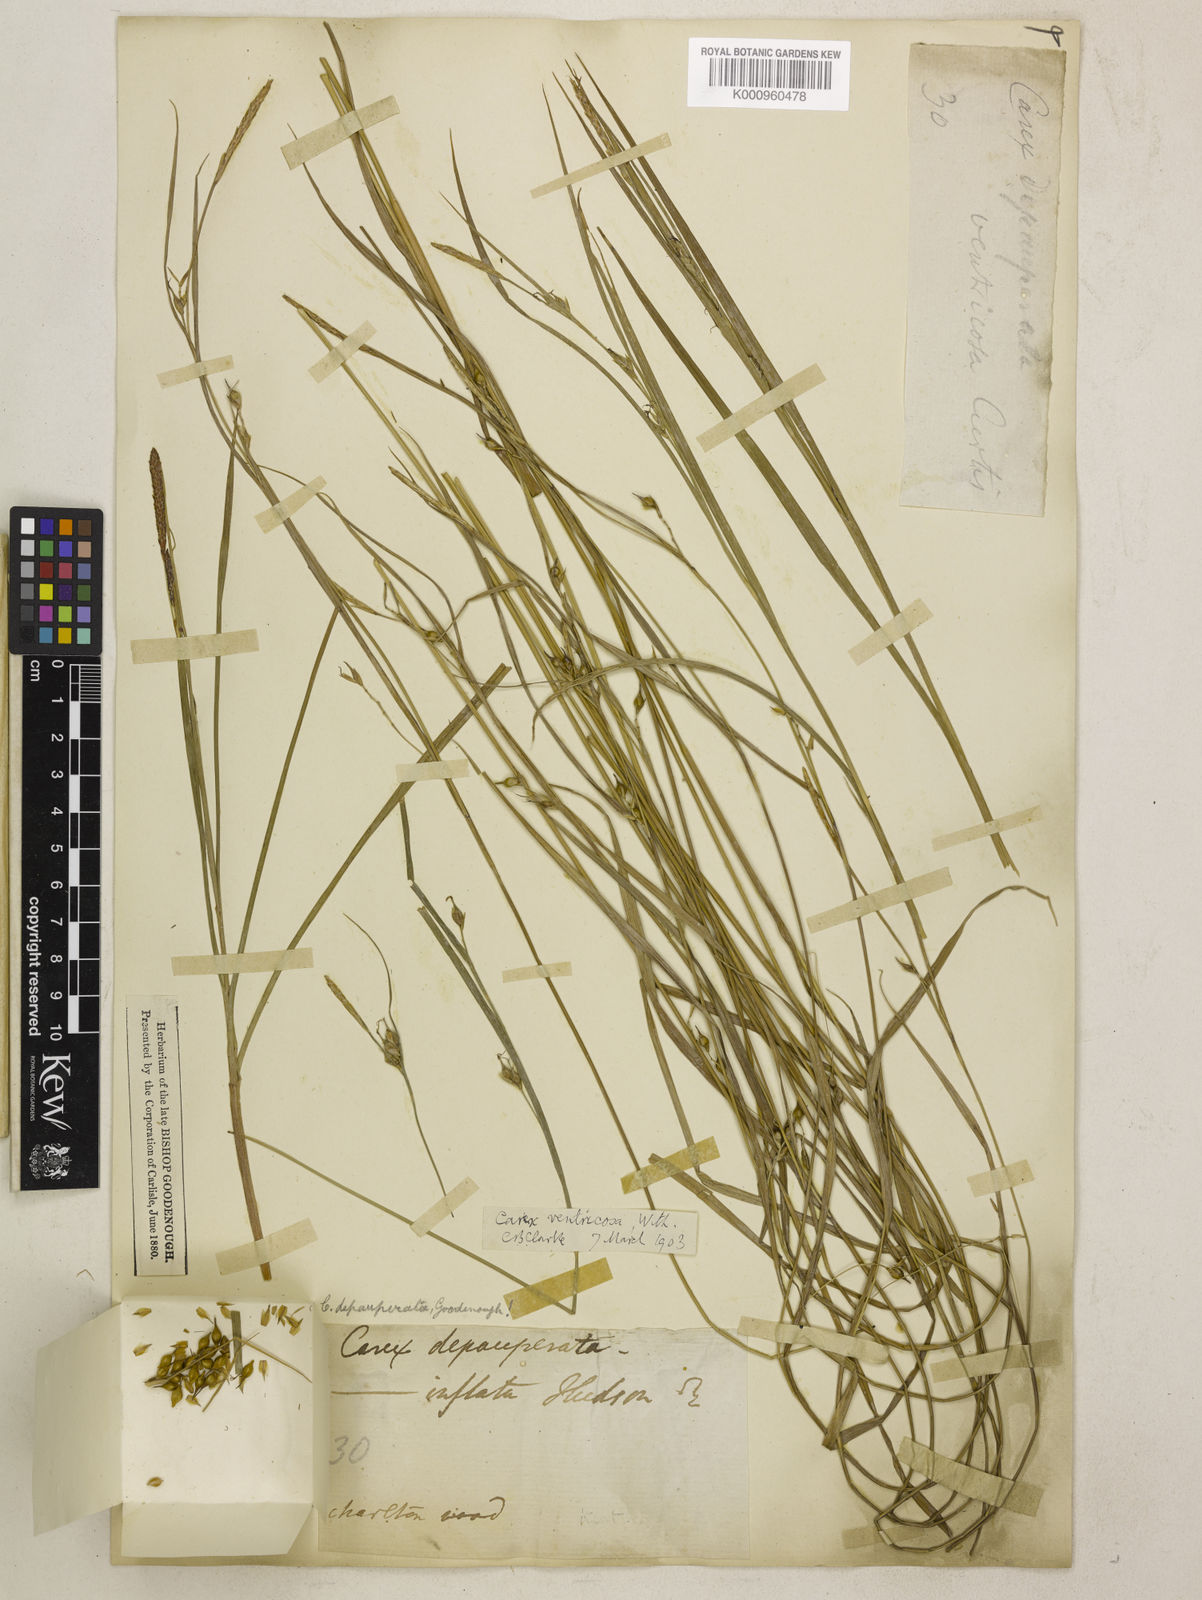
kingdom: Plantae
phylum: Tracheophyta
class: Liliopsida
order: Poales
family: Cyperaceae
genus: Carex
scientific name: Carex
